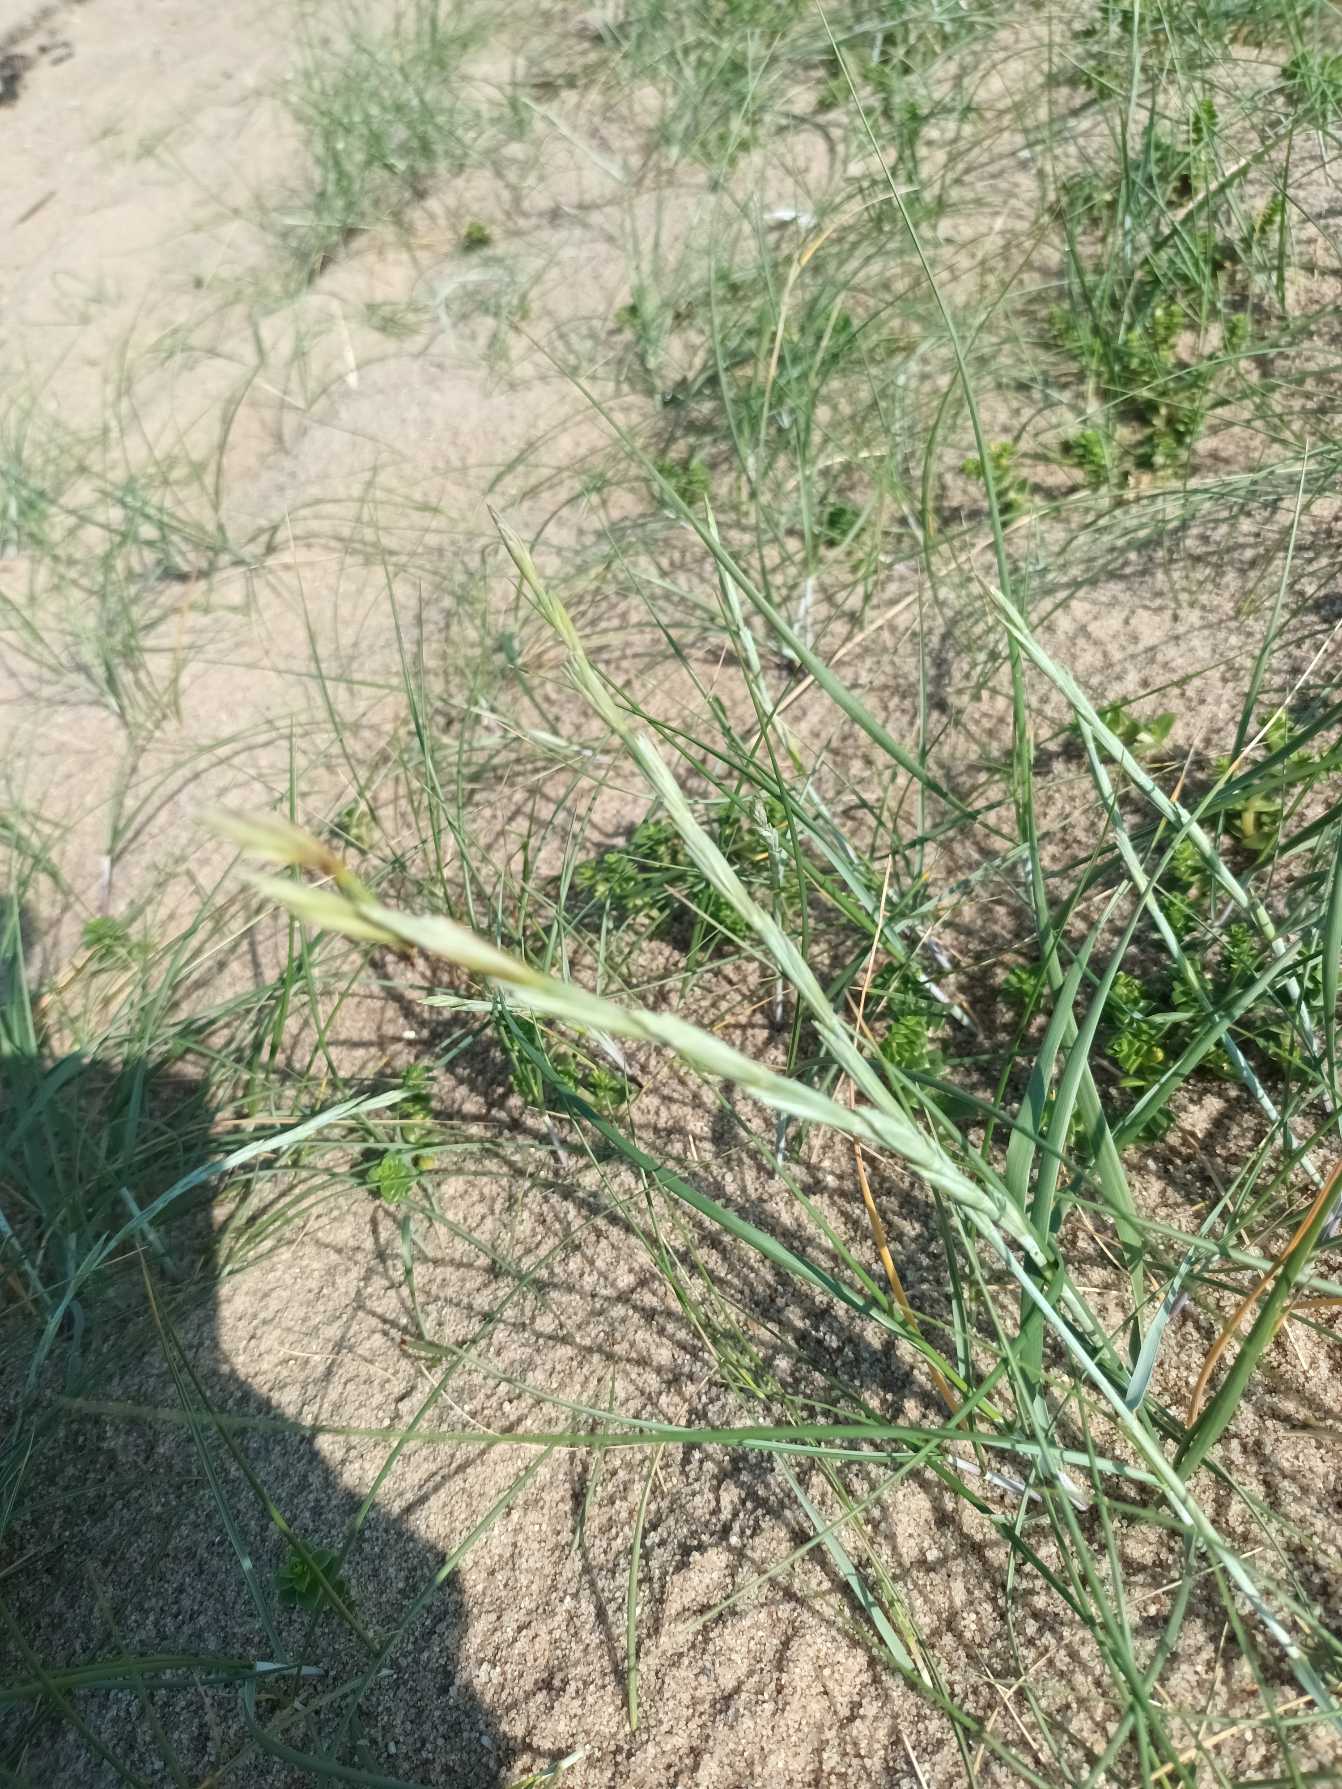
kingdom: Plantae
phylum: Tracheophyta
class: Liliopsida
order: Poales
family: Poaceae
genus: Thinopyrum
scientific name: Thinopyrum junceum
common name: Strand-kvik
